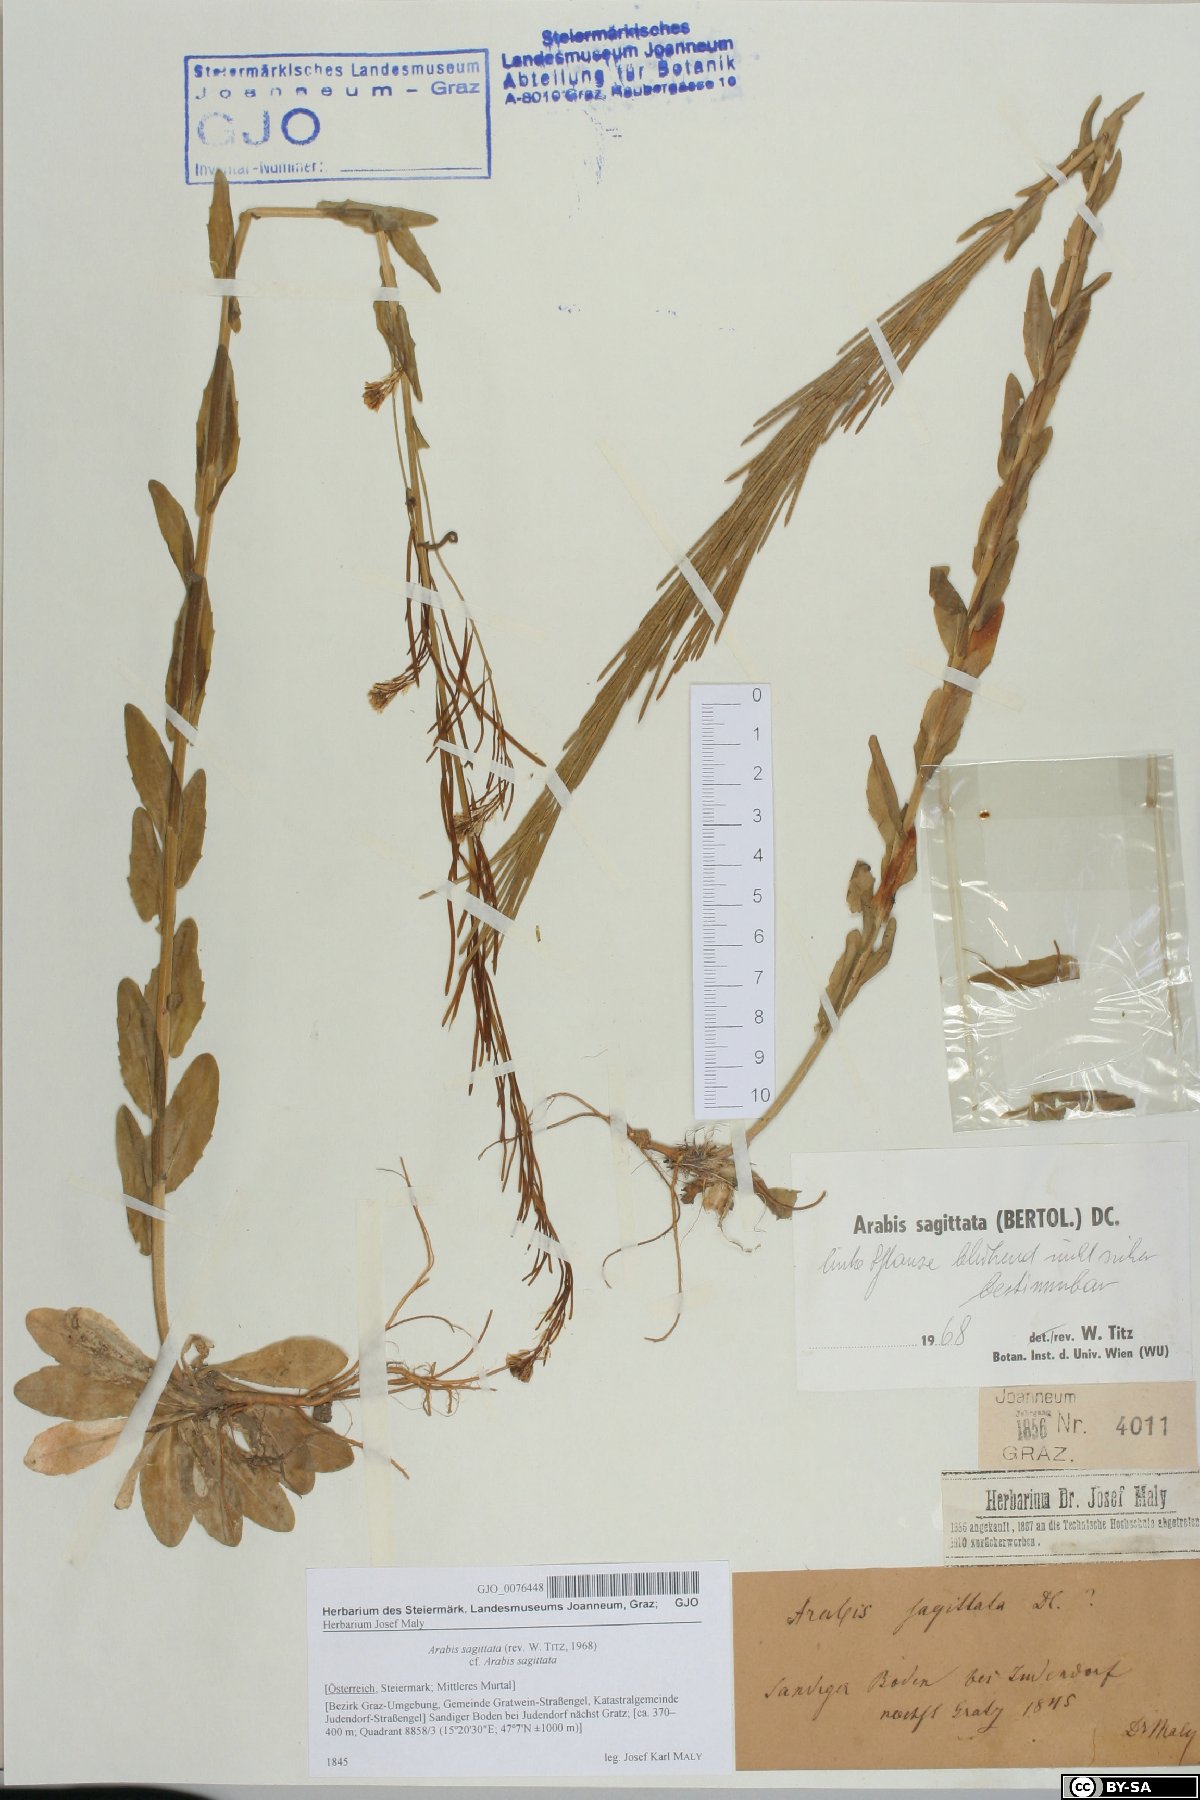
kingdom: Plantae
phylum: Tracheophyta
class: Magnoliopsida
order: Brassicales
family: Brassicaceae
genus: Arabis
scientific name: Arabis sagittata
